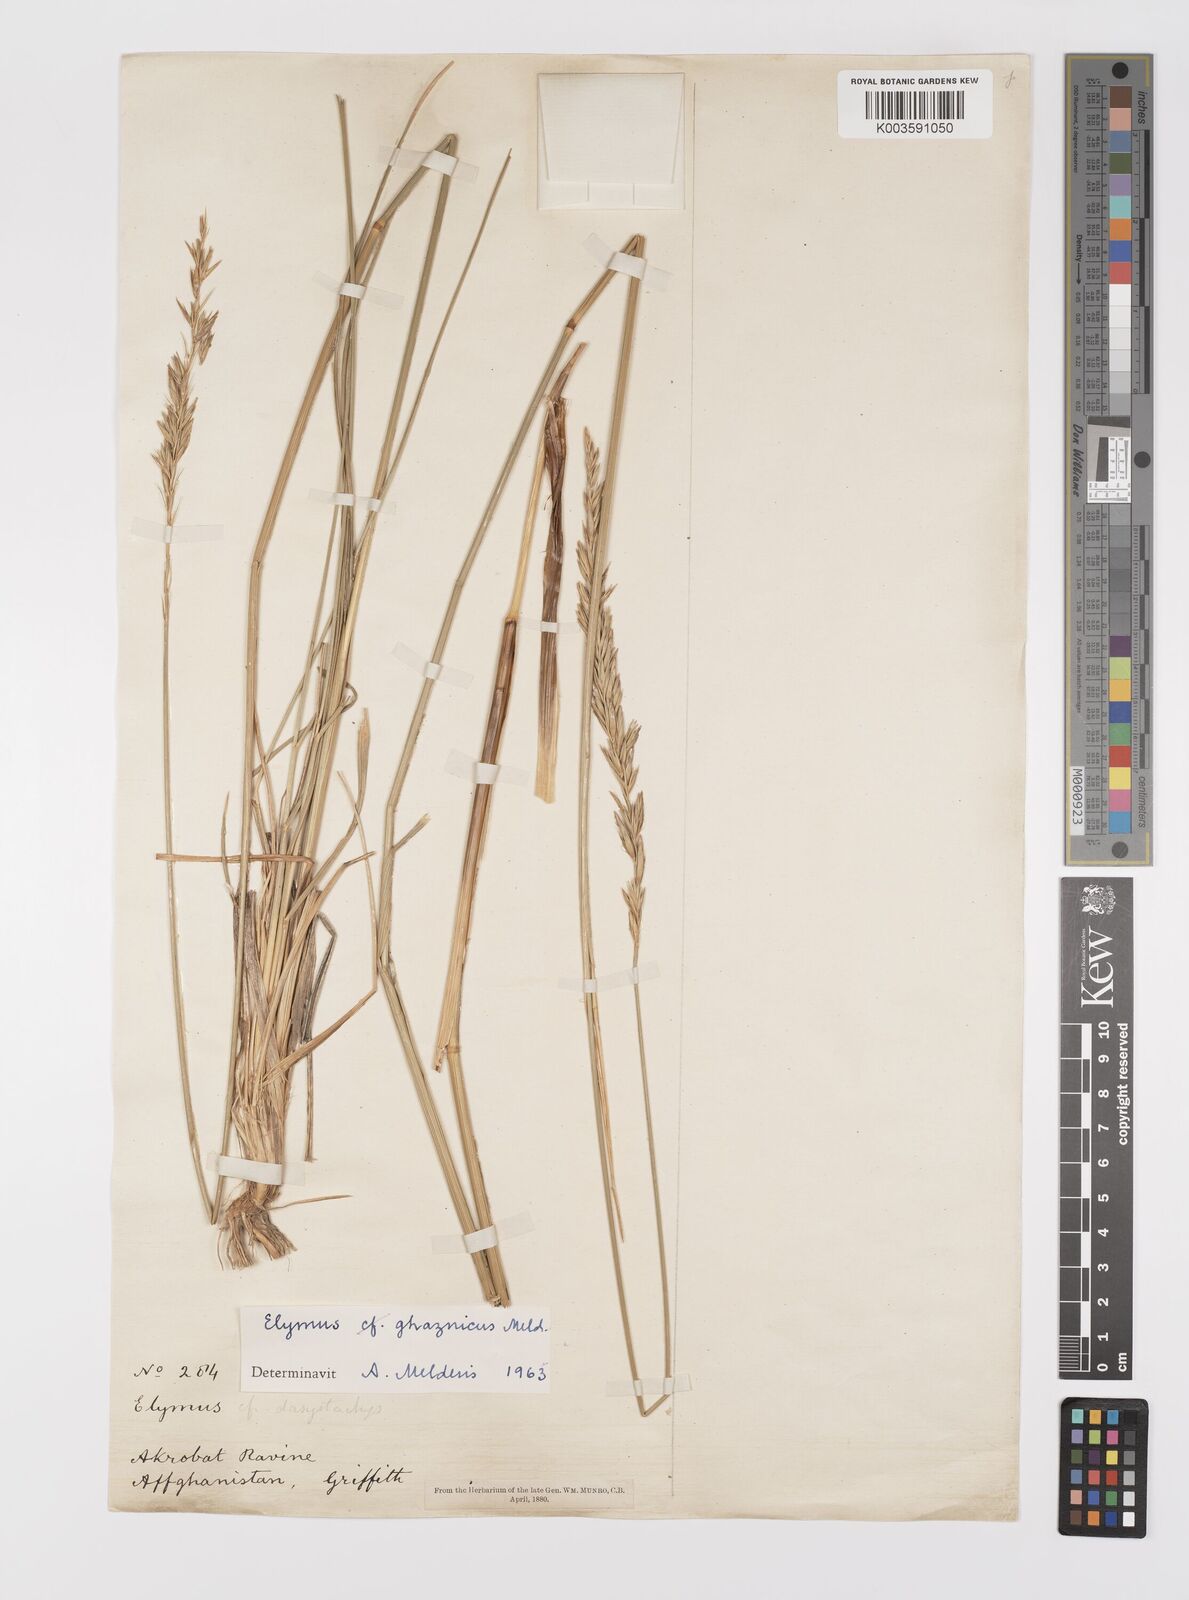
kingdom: Plantae
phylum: Tracheophyta
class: Liliopsida
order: Poales
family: Poaceae
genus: Leymus
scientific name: Leymus
